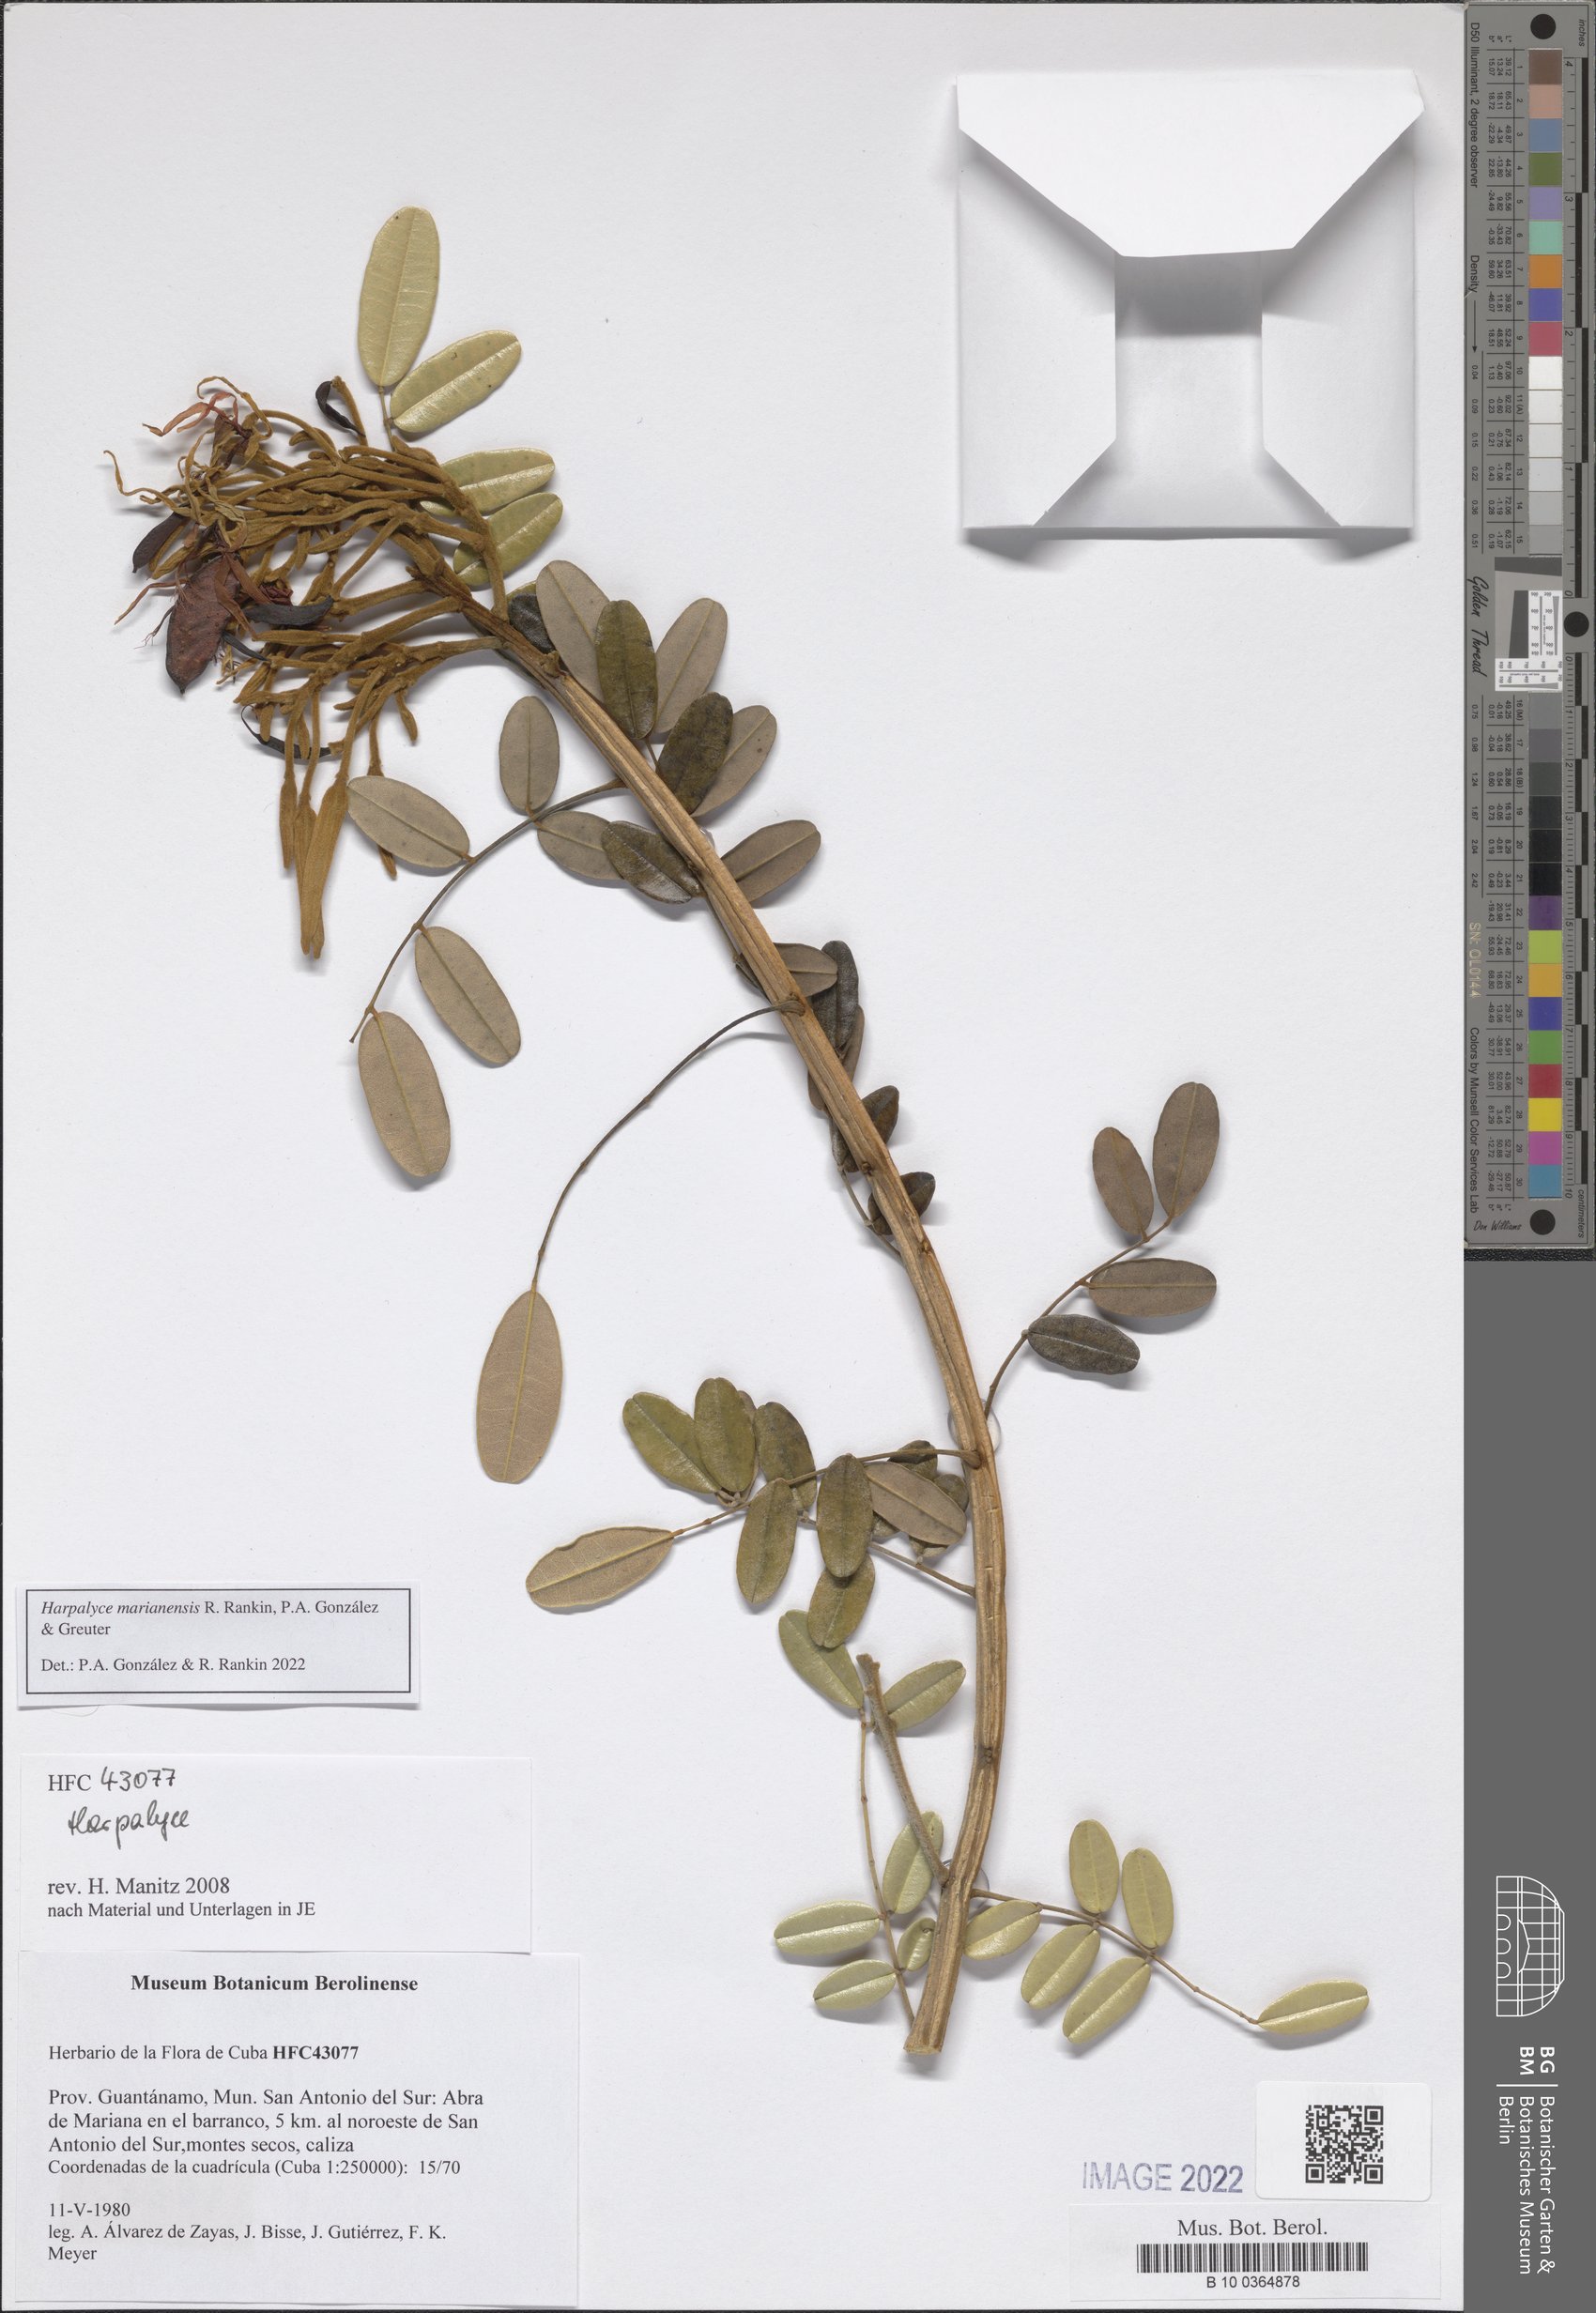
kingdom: Plantae
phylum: Tracheophyta
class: Magnoliopsida
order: Fabales
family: Fabaceae
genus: Harpalyce
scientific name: Harpalyce marianensis
